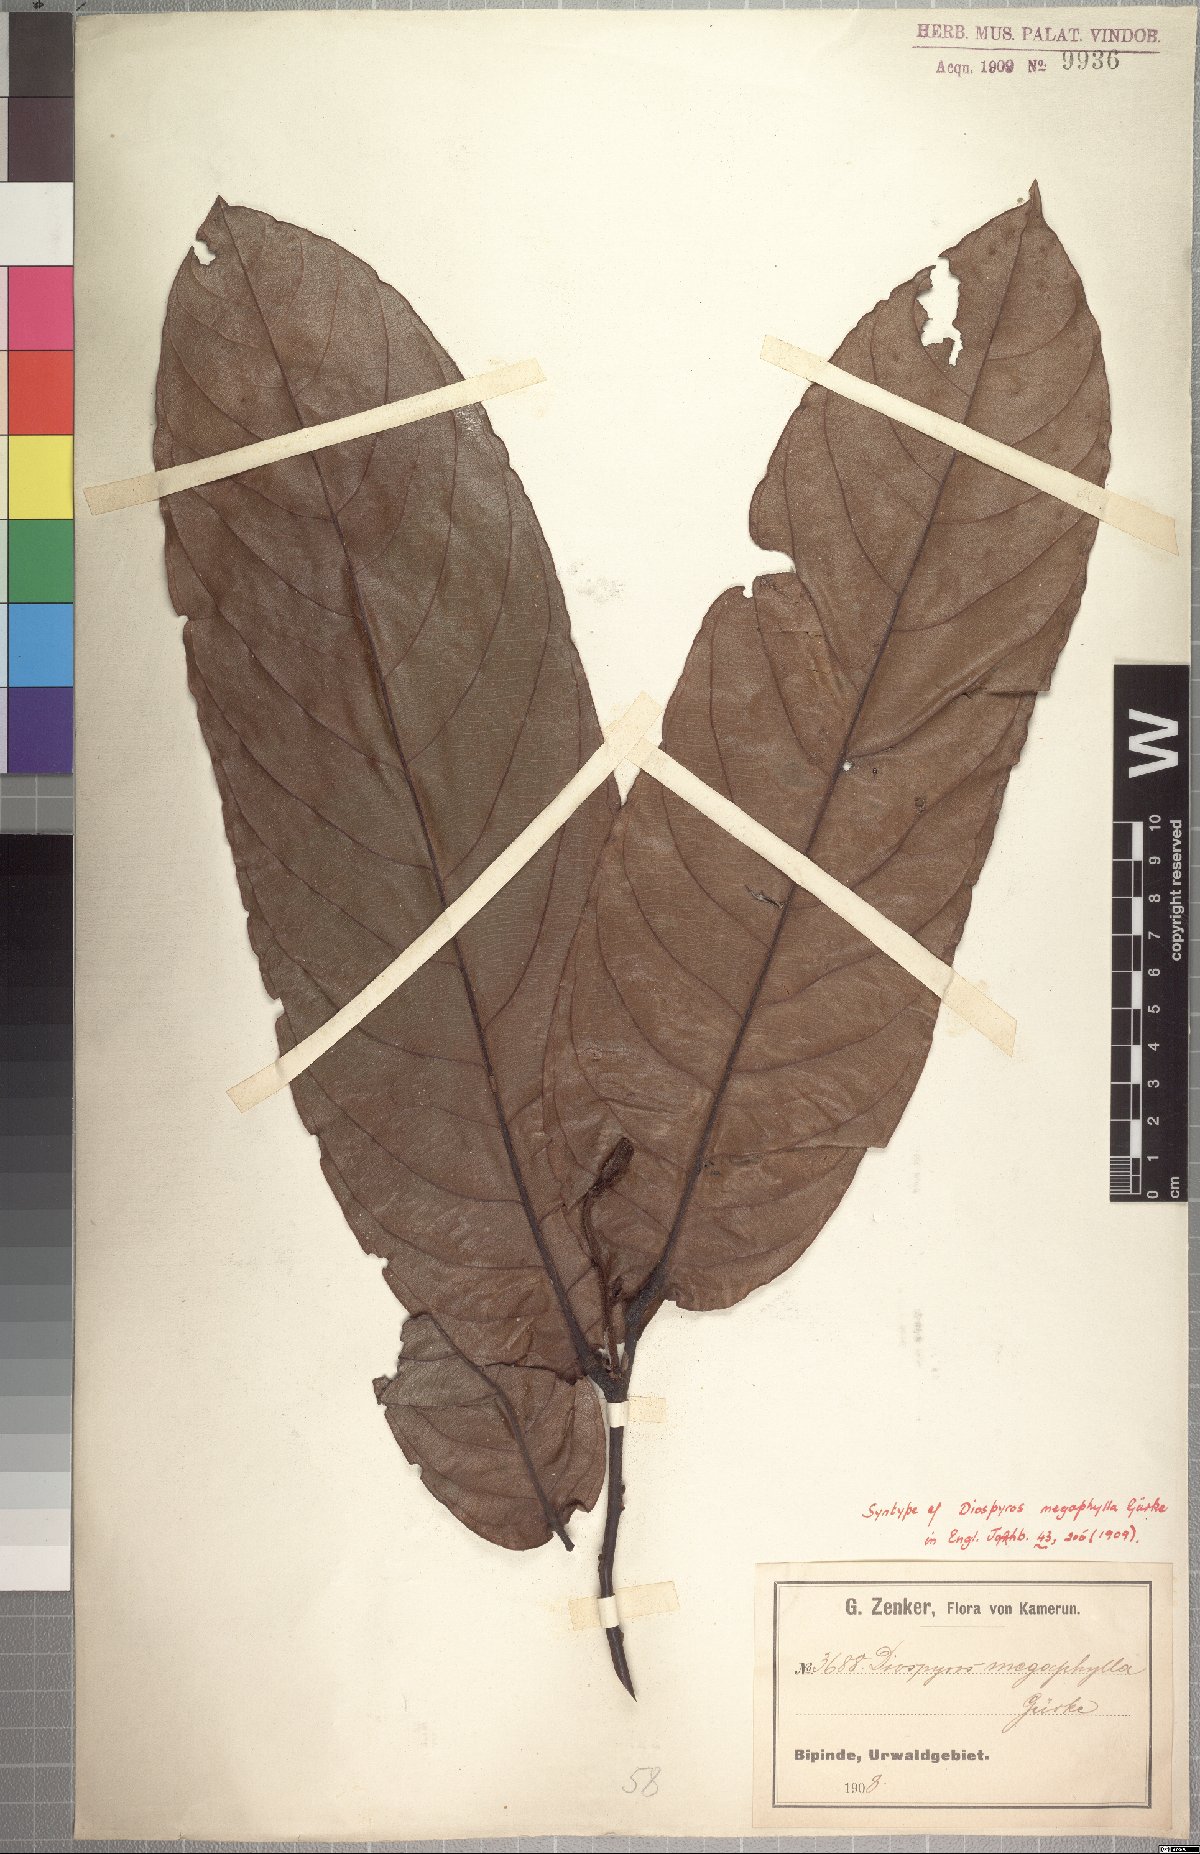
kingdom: Plantae
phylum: Tracheophyta
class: Magnoliopsida
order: Ericales
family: Ebenaceae
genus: Diospyros
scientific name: Diospyros gabunensis
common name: Flint bark tree
